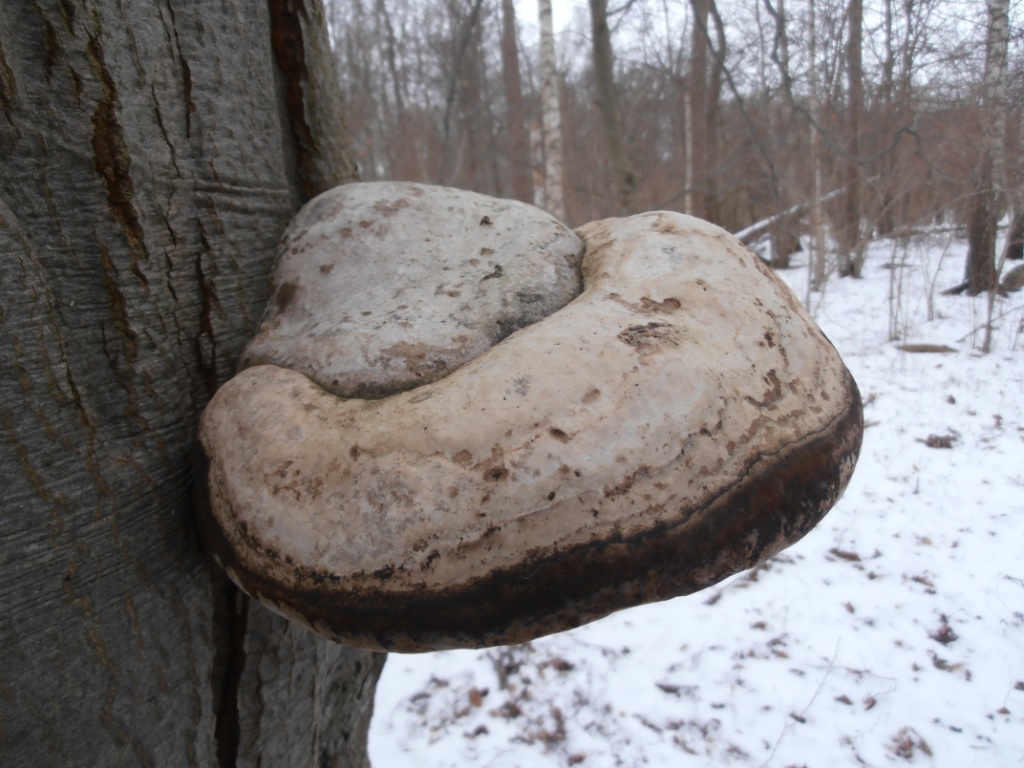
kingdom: Fungi
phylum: Basidiomycota
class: Agaricomycetes
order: Polyporales
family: Polyporaceae
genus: Fomes
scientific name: Fomes fomentarius
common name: tøndersvamp
